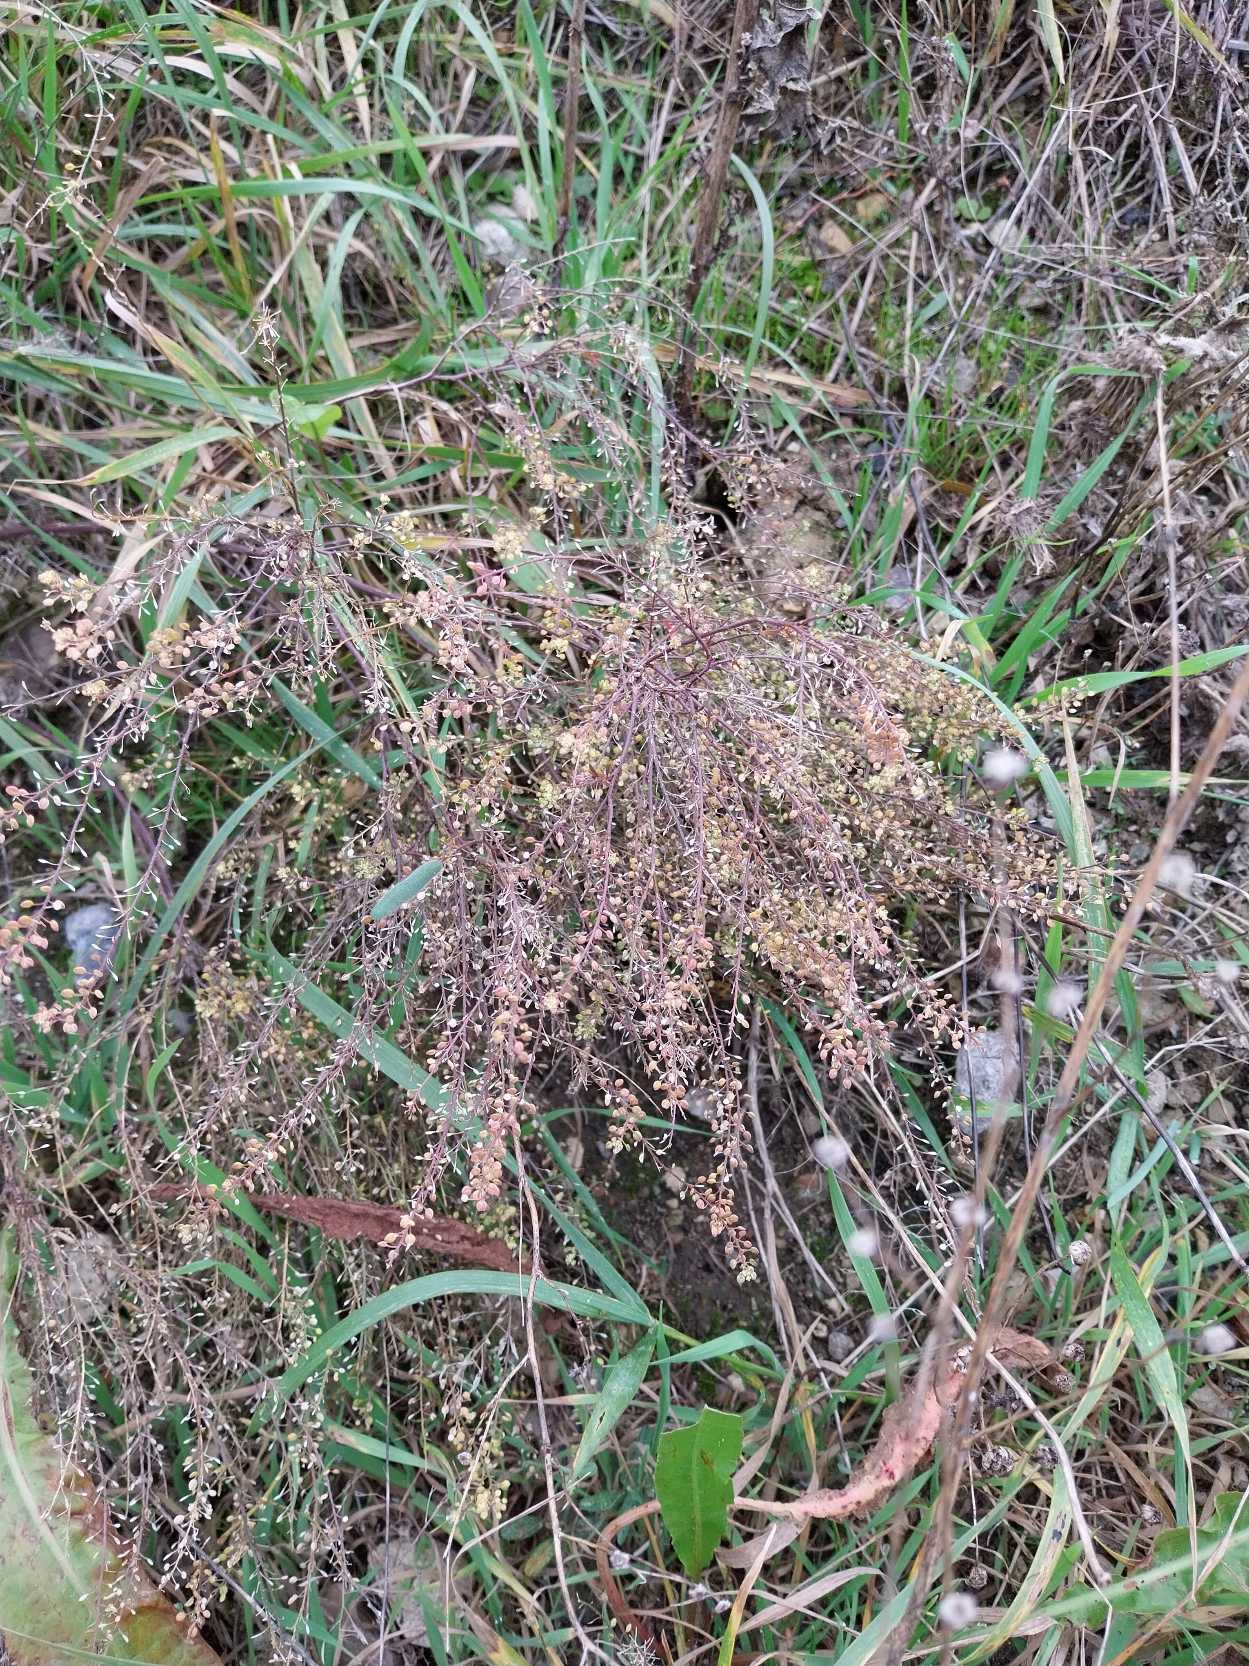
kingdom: Plantae
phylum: Tracheophyta
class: Magnoliopsida
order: Brassicales
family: Brassicaceae
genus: Lepidium
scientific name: Lepidium ruderale
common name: Stinkende karse
